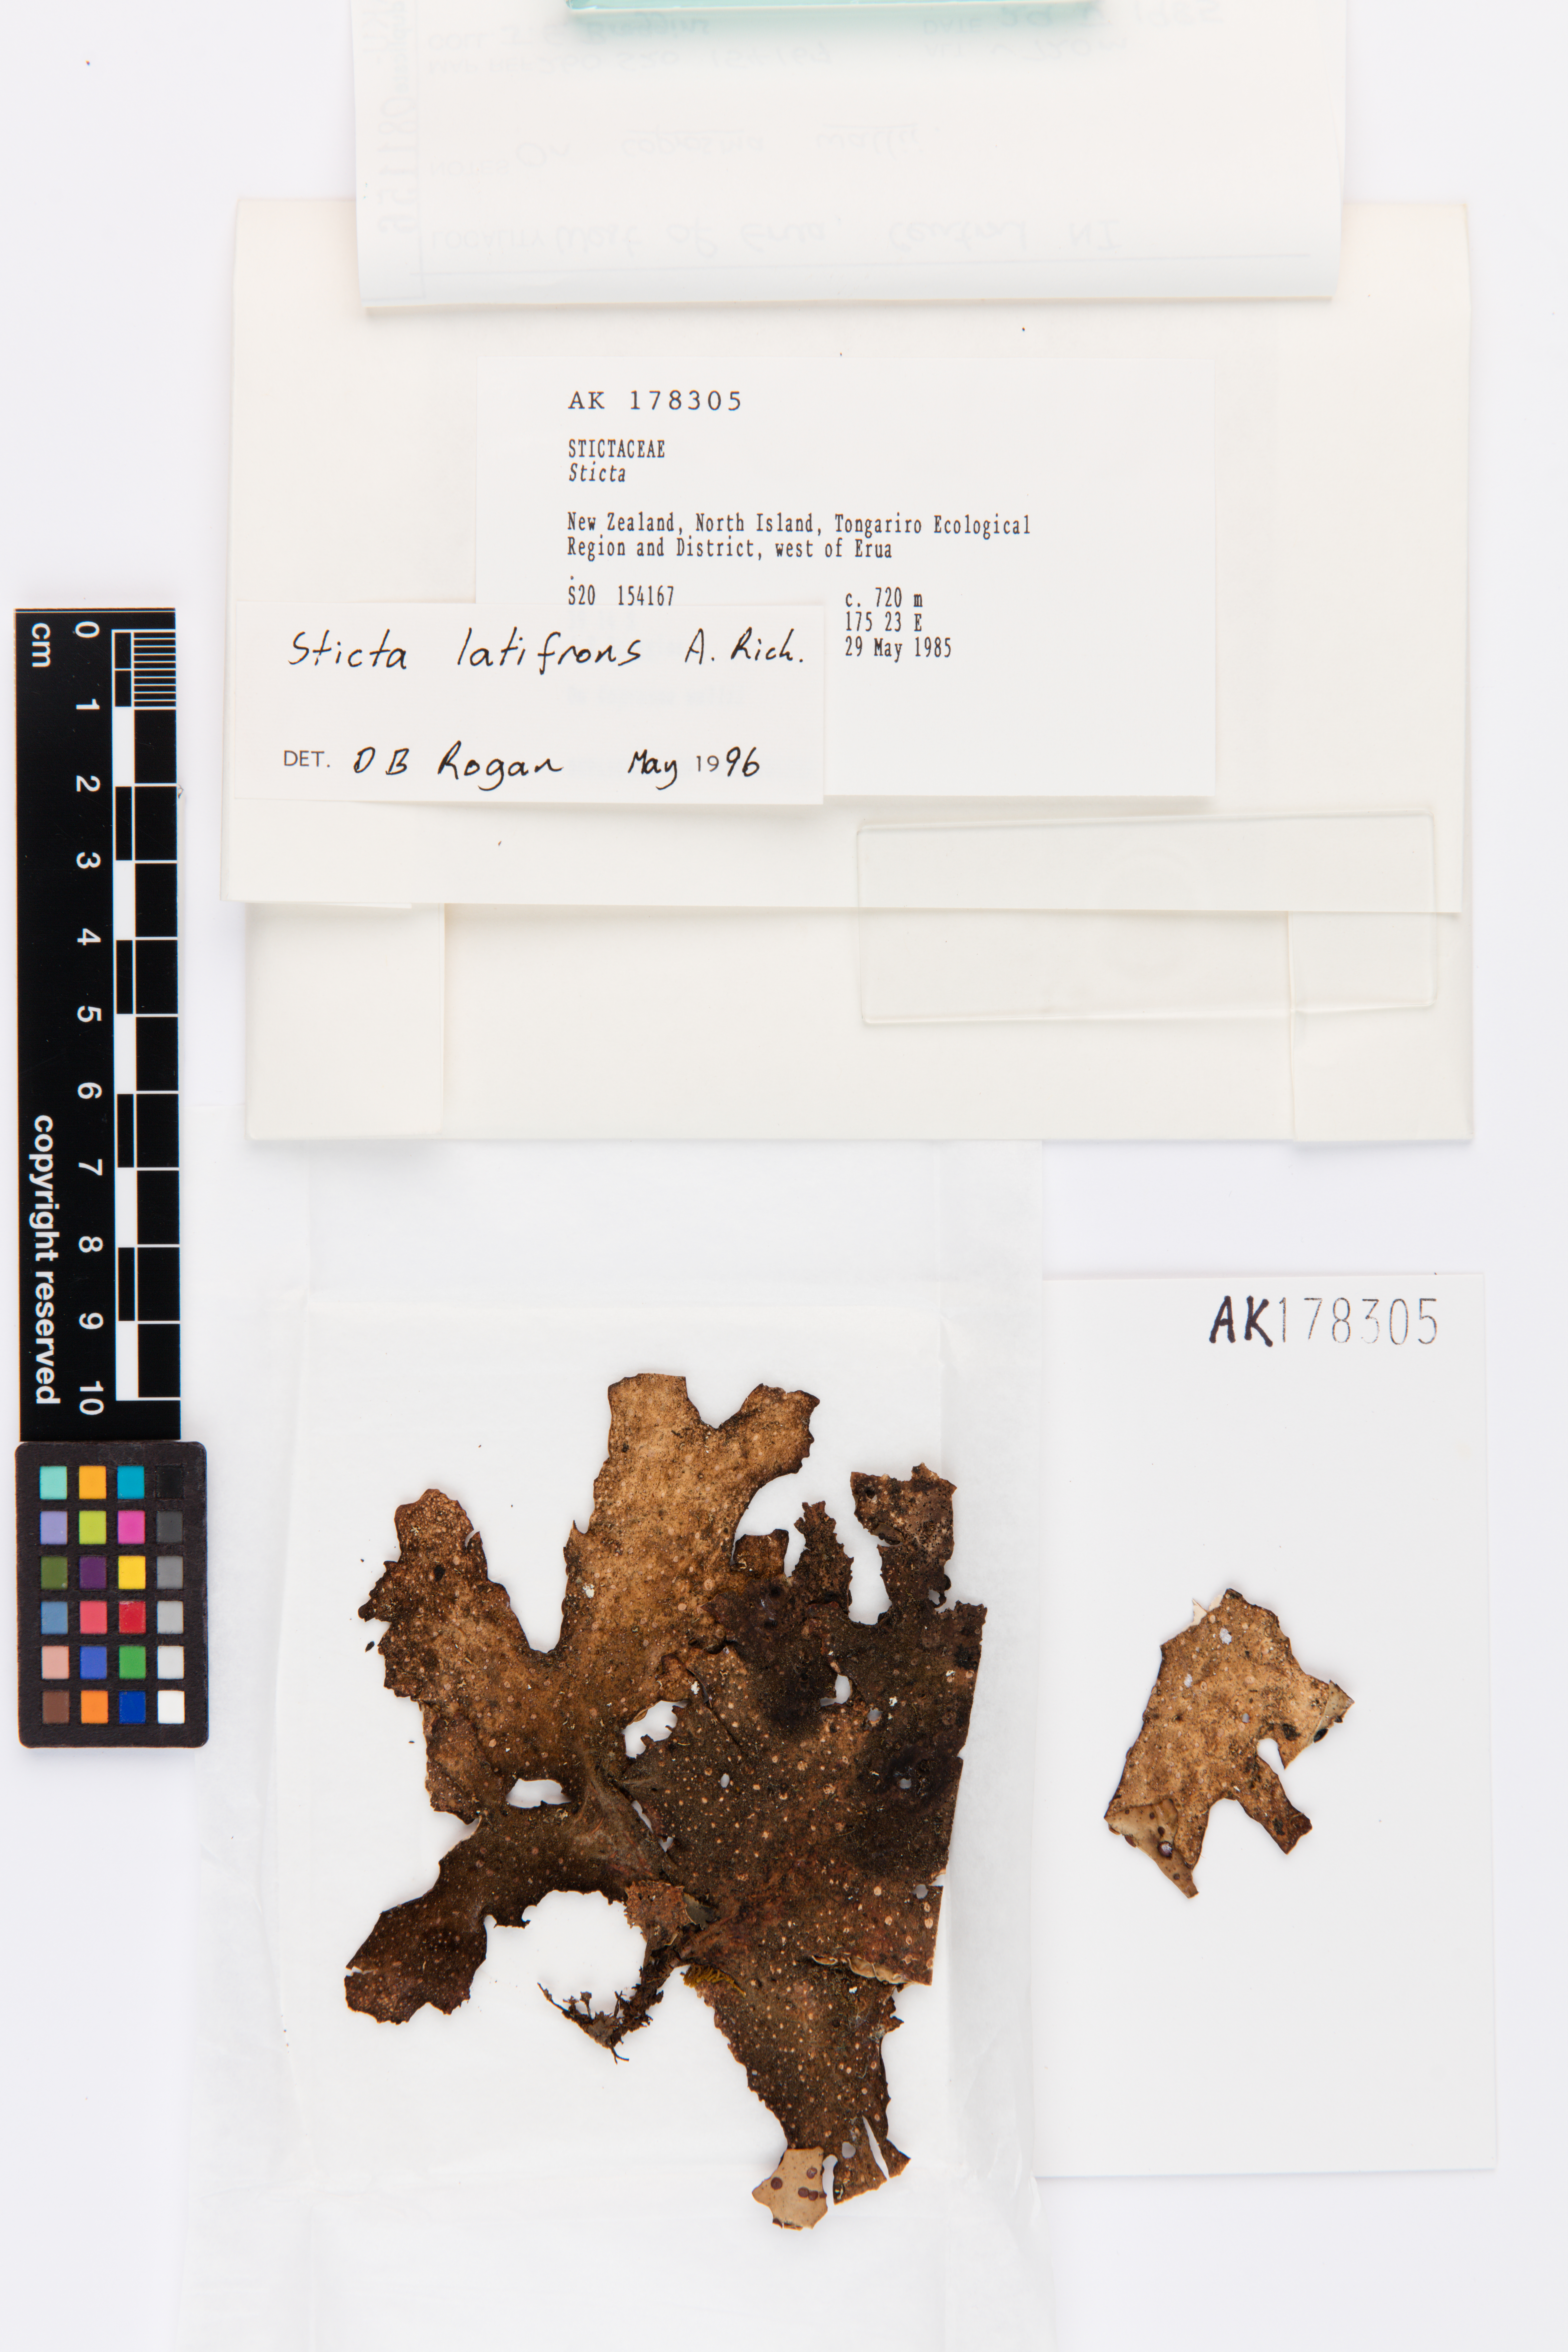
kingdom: Fungi
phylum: Ascomycota
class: Lecanoromycetes
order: Peltigerales
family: Lobariaceae
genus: Sticta
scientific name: Sticta latifrons
